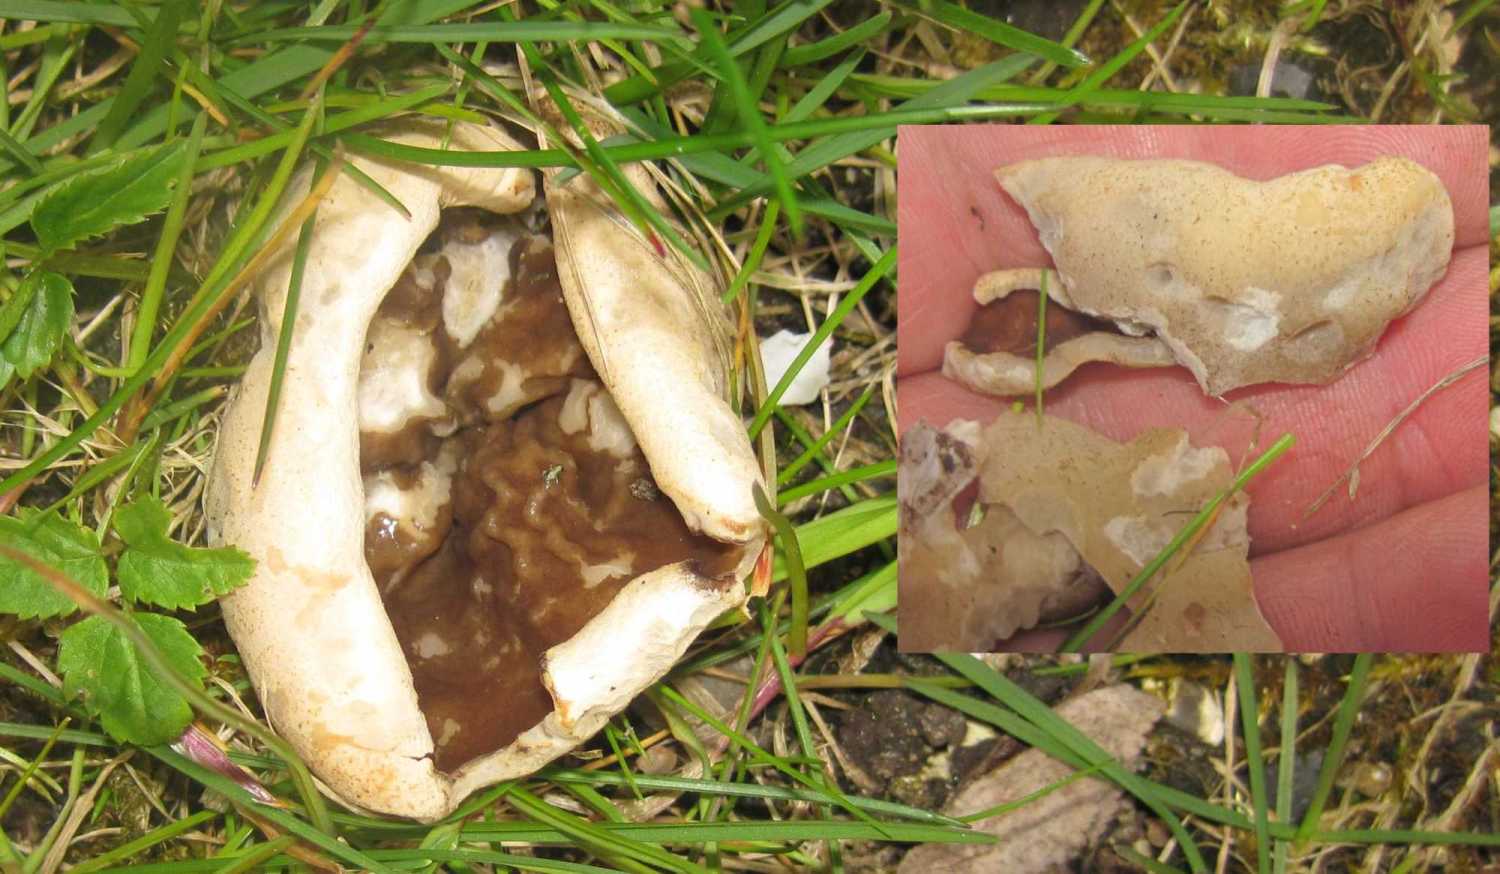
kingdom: Fungi
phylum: Ascomycota
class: Pezizomycetes
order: Pezizales
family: Morchellaceae
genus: Disciotis
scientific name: Disciotis venosa
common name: klor-bægermorkel
